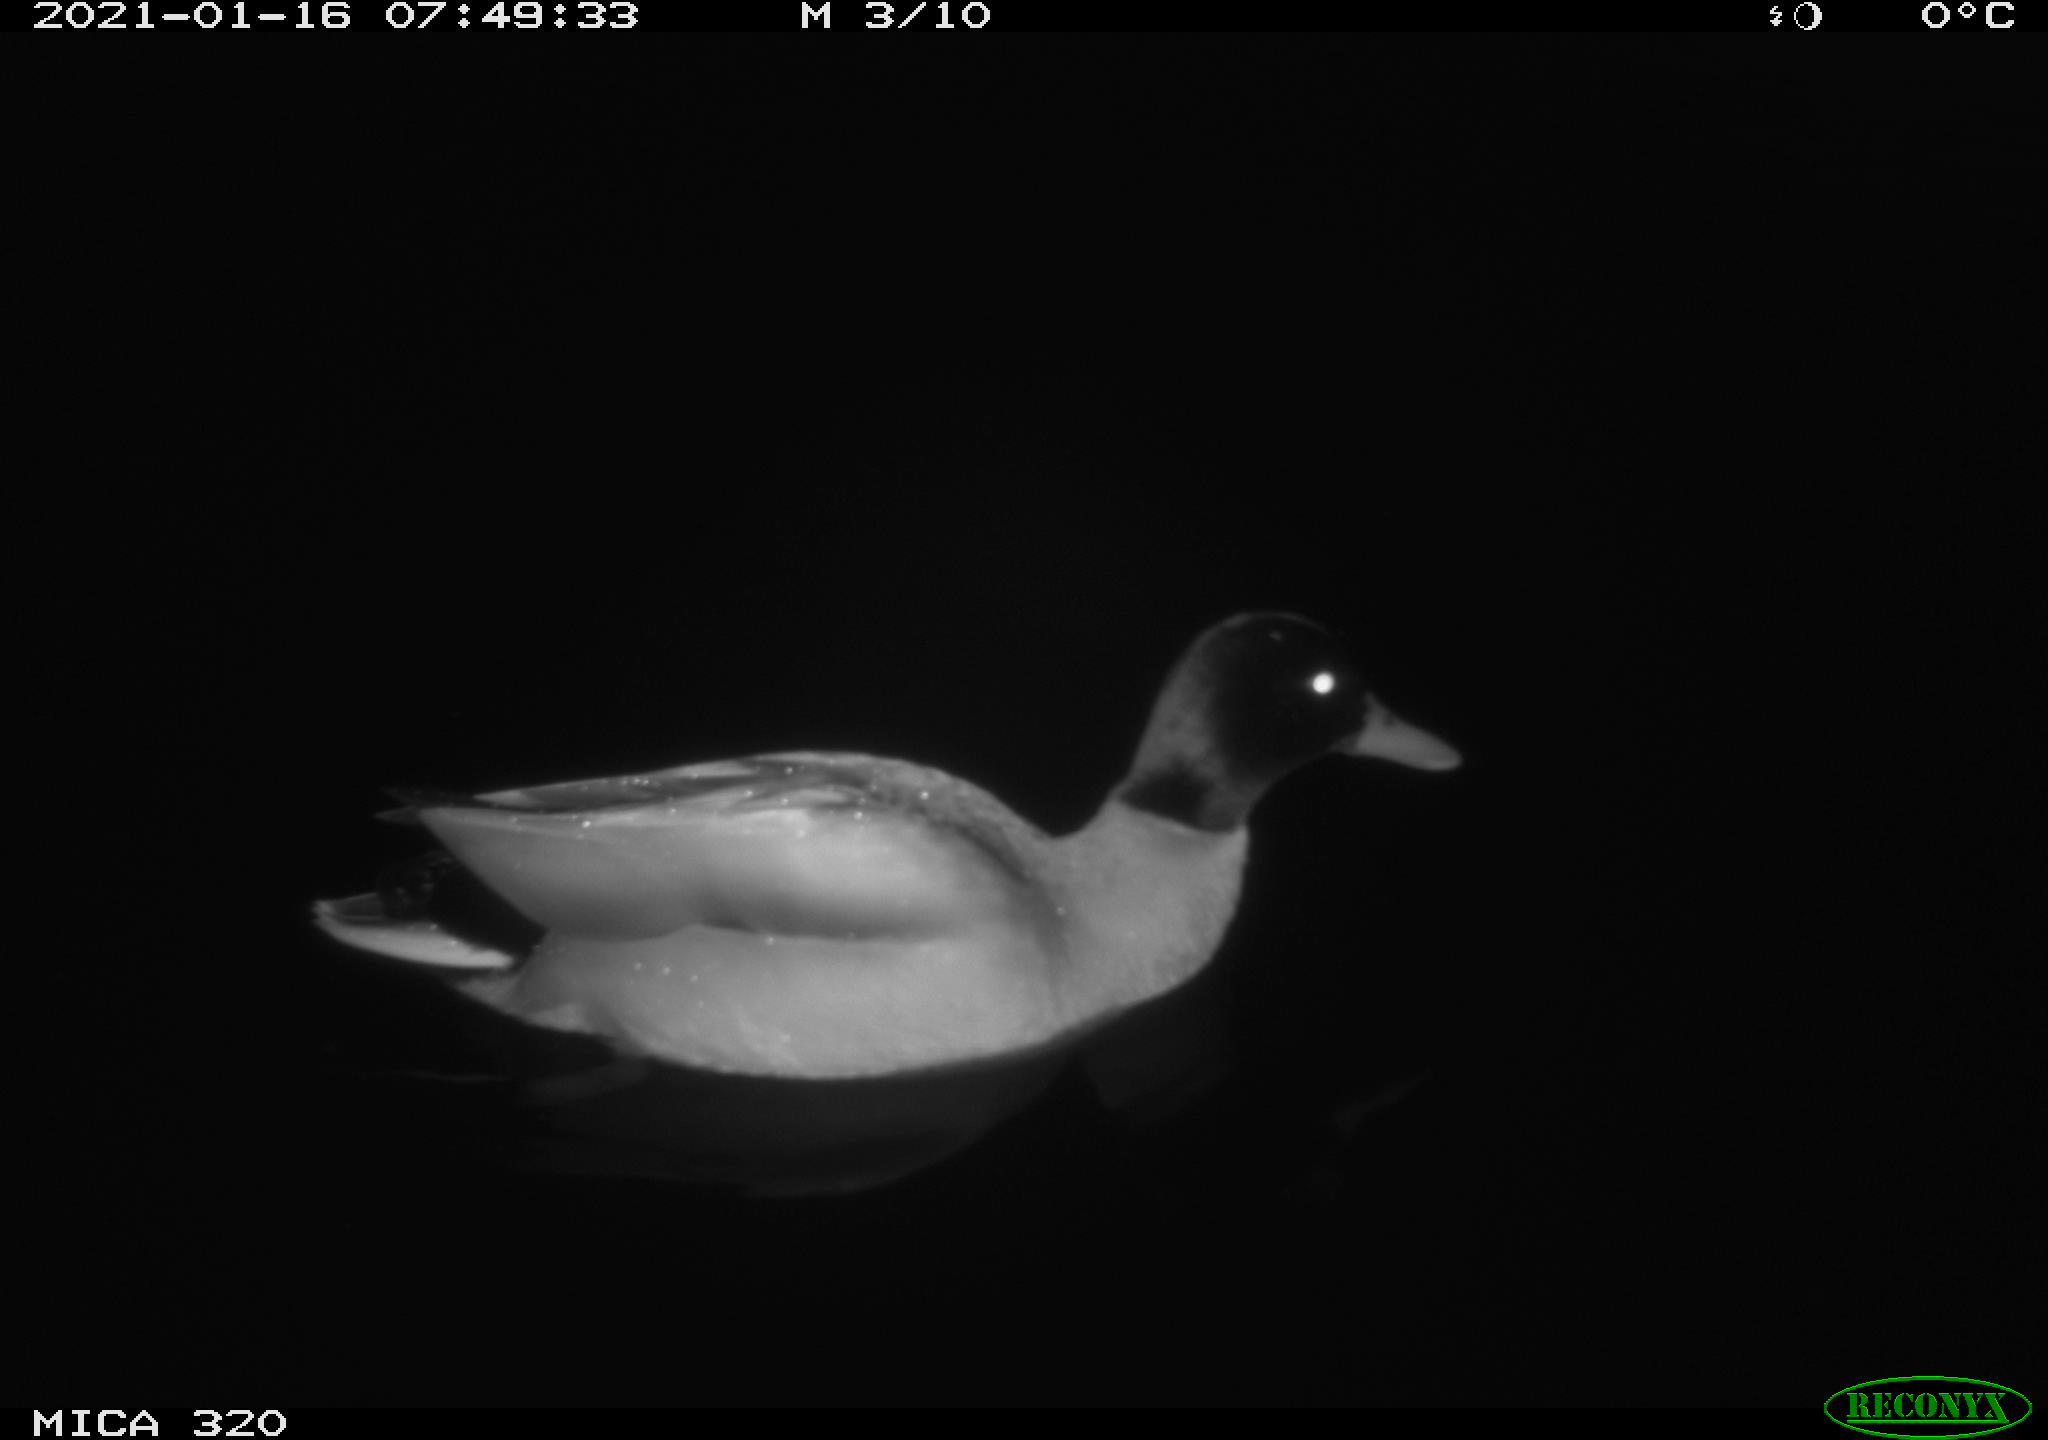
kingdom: Animalia
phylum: Chordata
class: Aves
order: Anseriformes
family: Anatidae
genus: Anas
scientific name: Anas platyrhynchos
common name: Mallard
